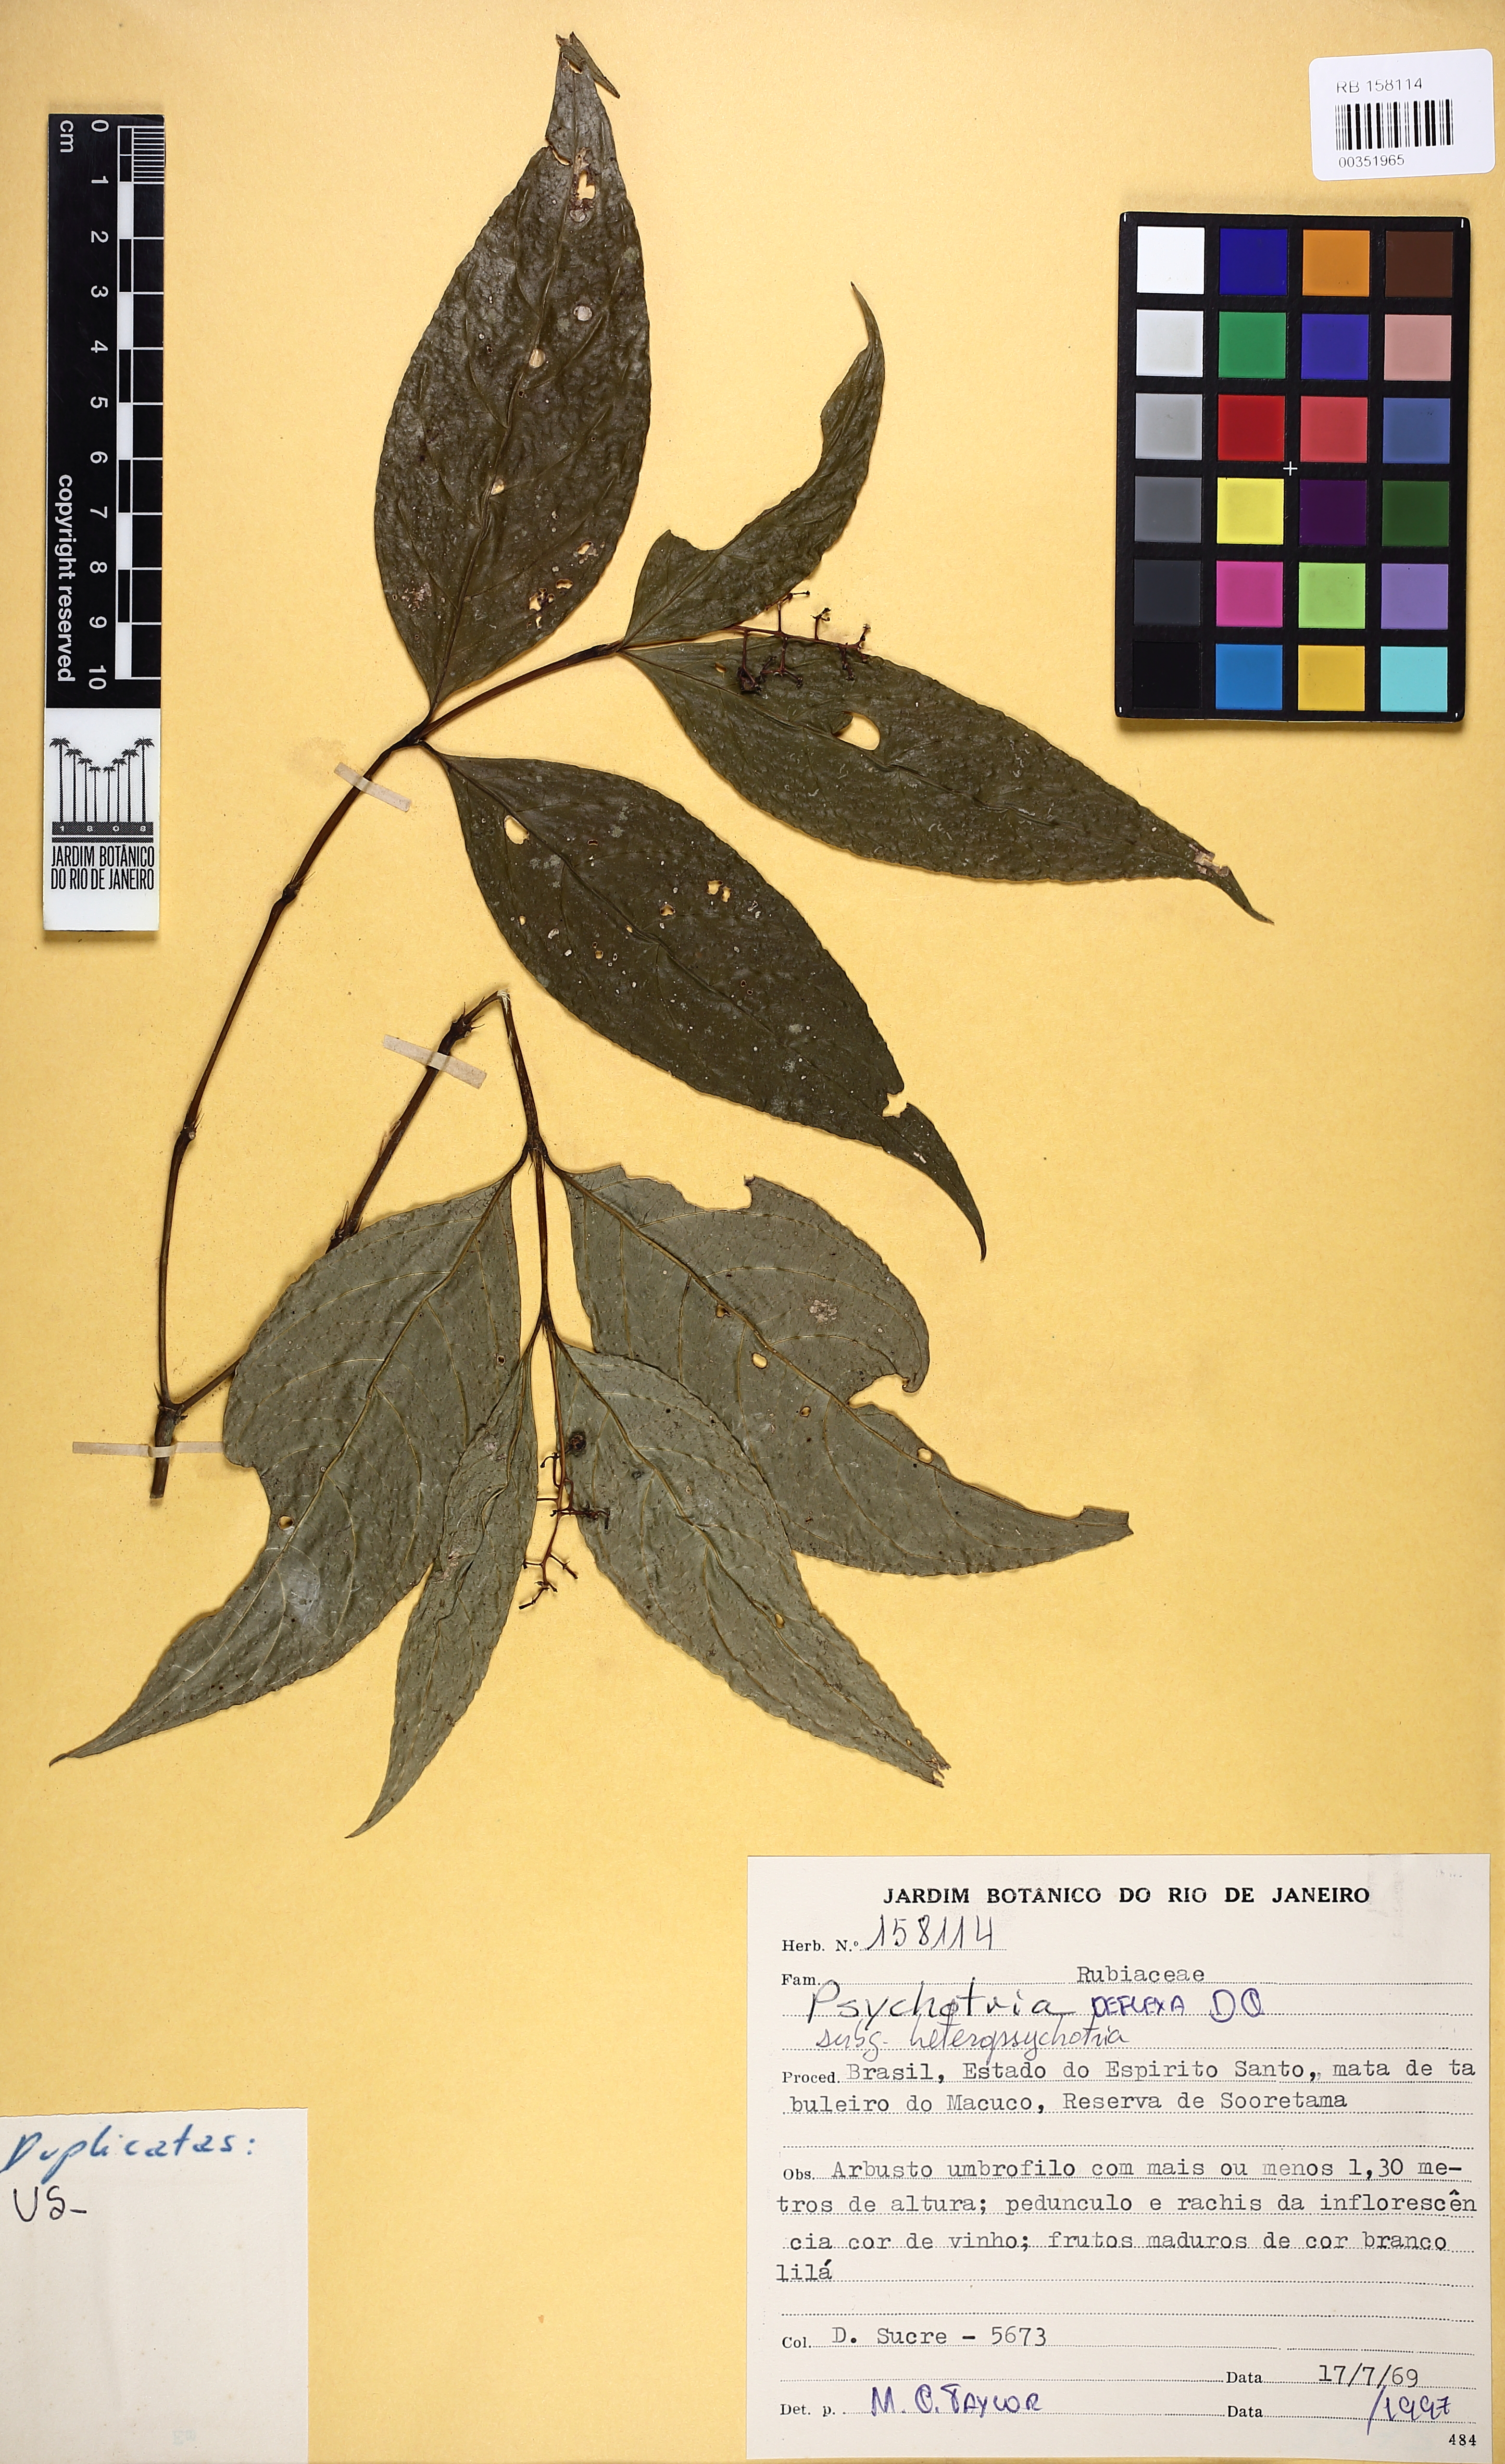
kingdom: Plantae
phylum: Tracheophyta
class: Magnoliopsida
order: Gentianales
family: Rubiaceae
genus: Palicourea
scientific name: Palicourea deflexa
